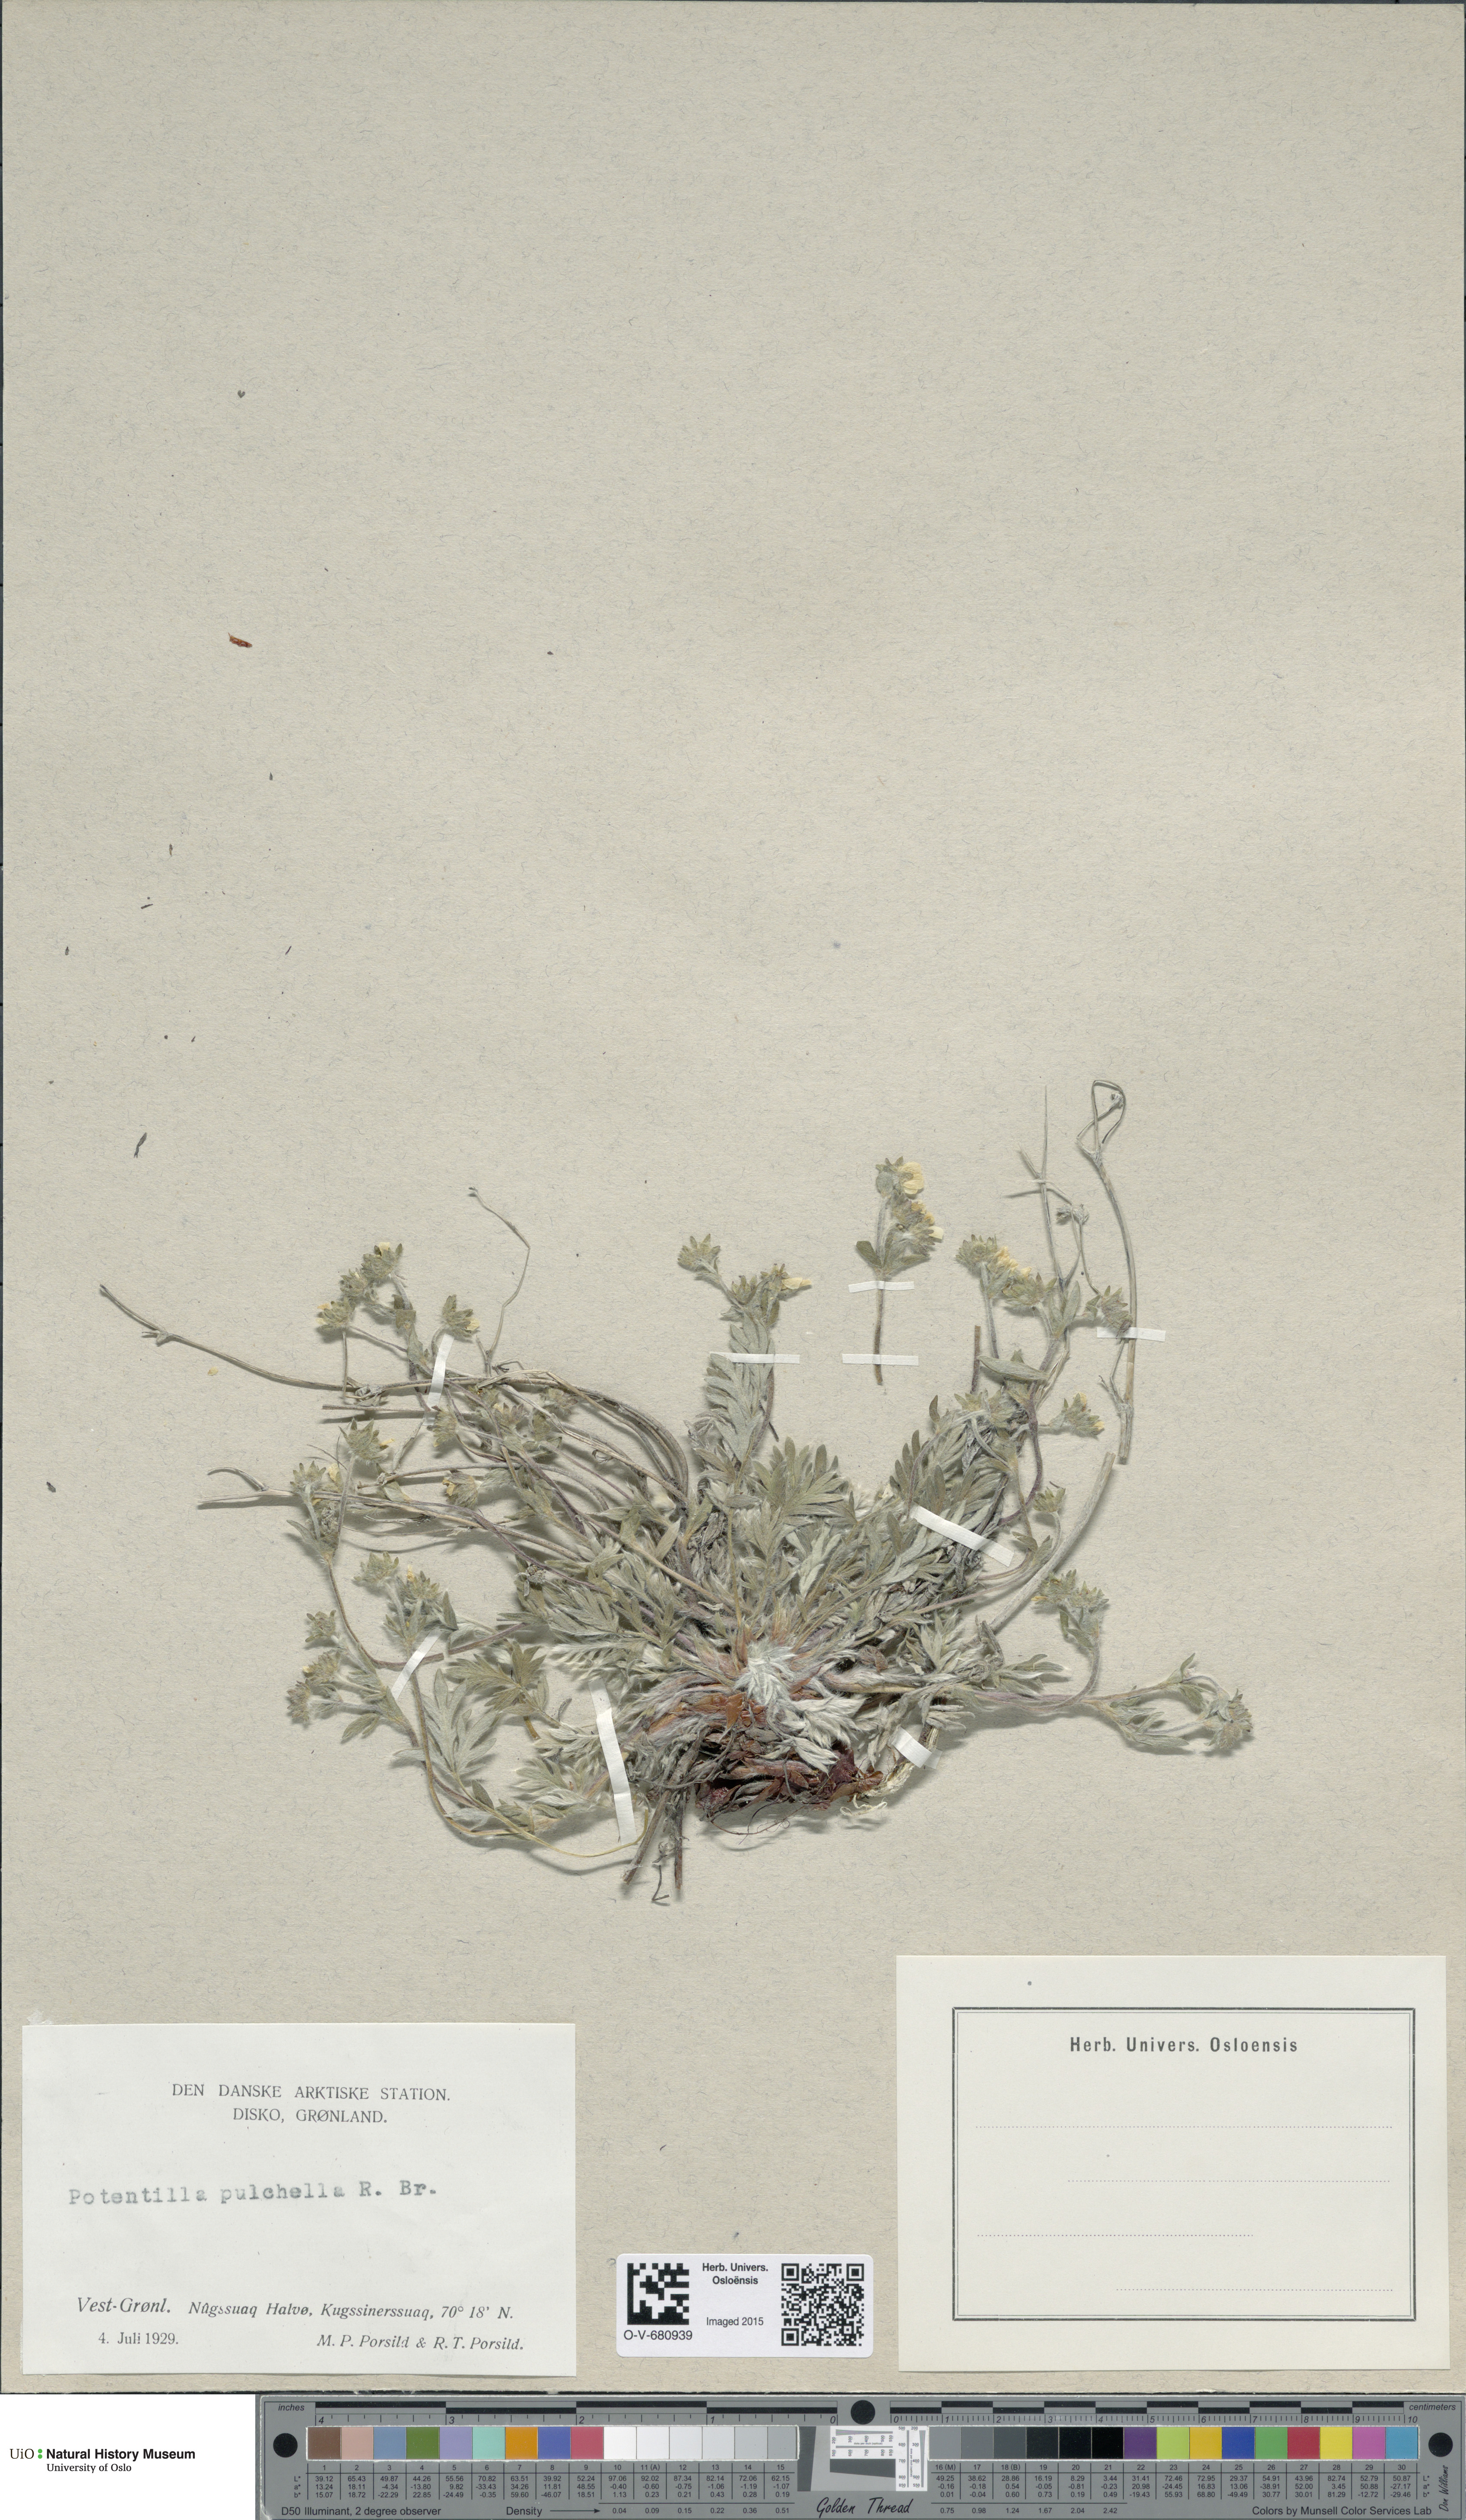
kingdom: Plantae
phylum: Tracheophyta
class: Magnoliopsida
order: Rosales
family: Rosaceae
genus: Potentilla
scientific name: Potentilla pulchella
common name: Pretty cinquefoil
